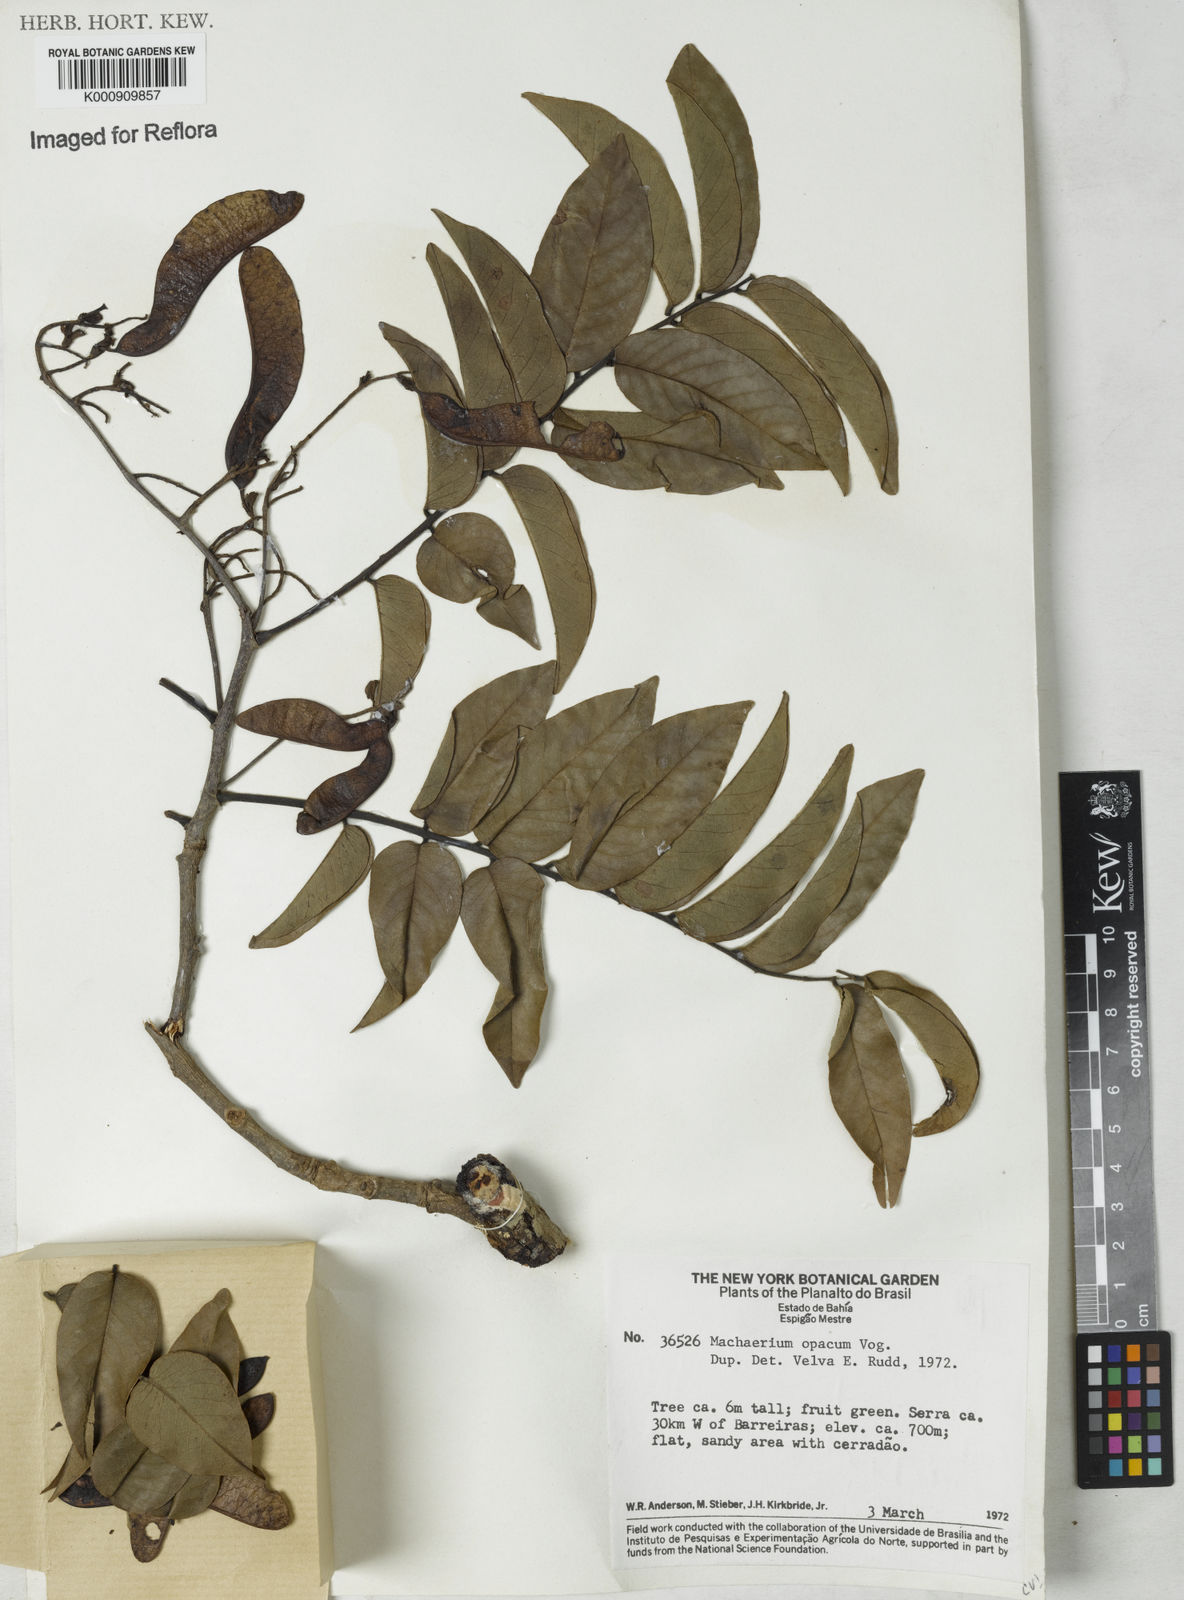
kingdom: Plantae
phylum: Tracheophyta
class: Magnoliopsida
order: Fabales
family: Fabaceae
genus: Machaerium
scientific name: Machaerium opacum
